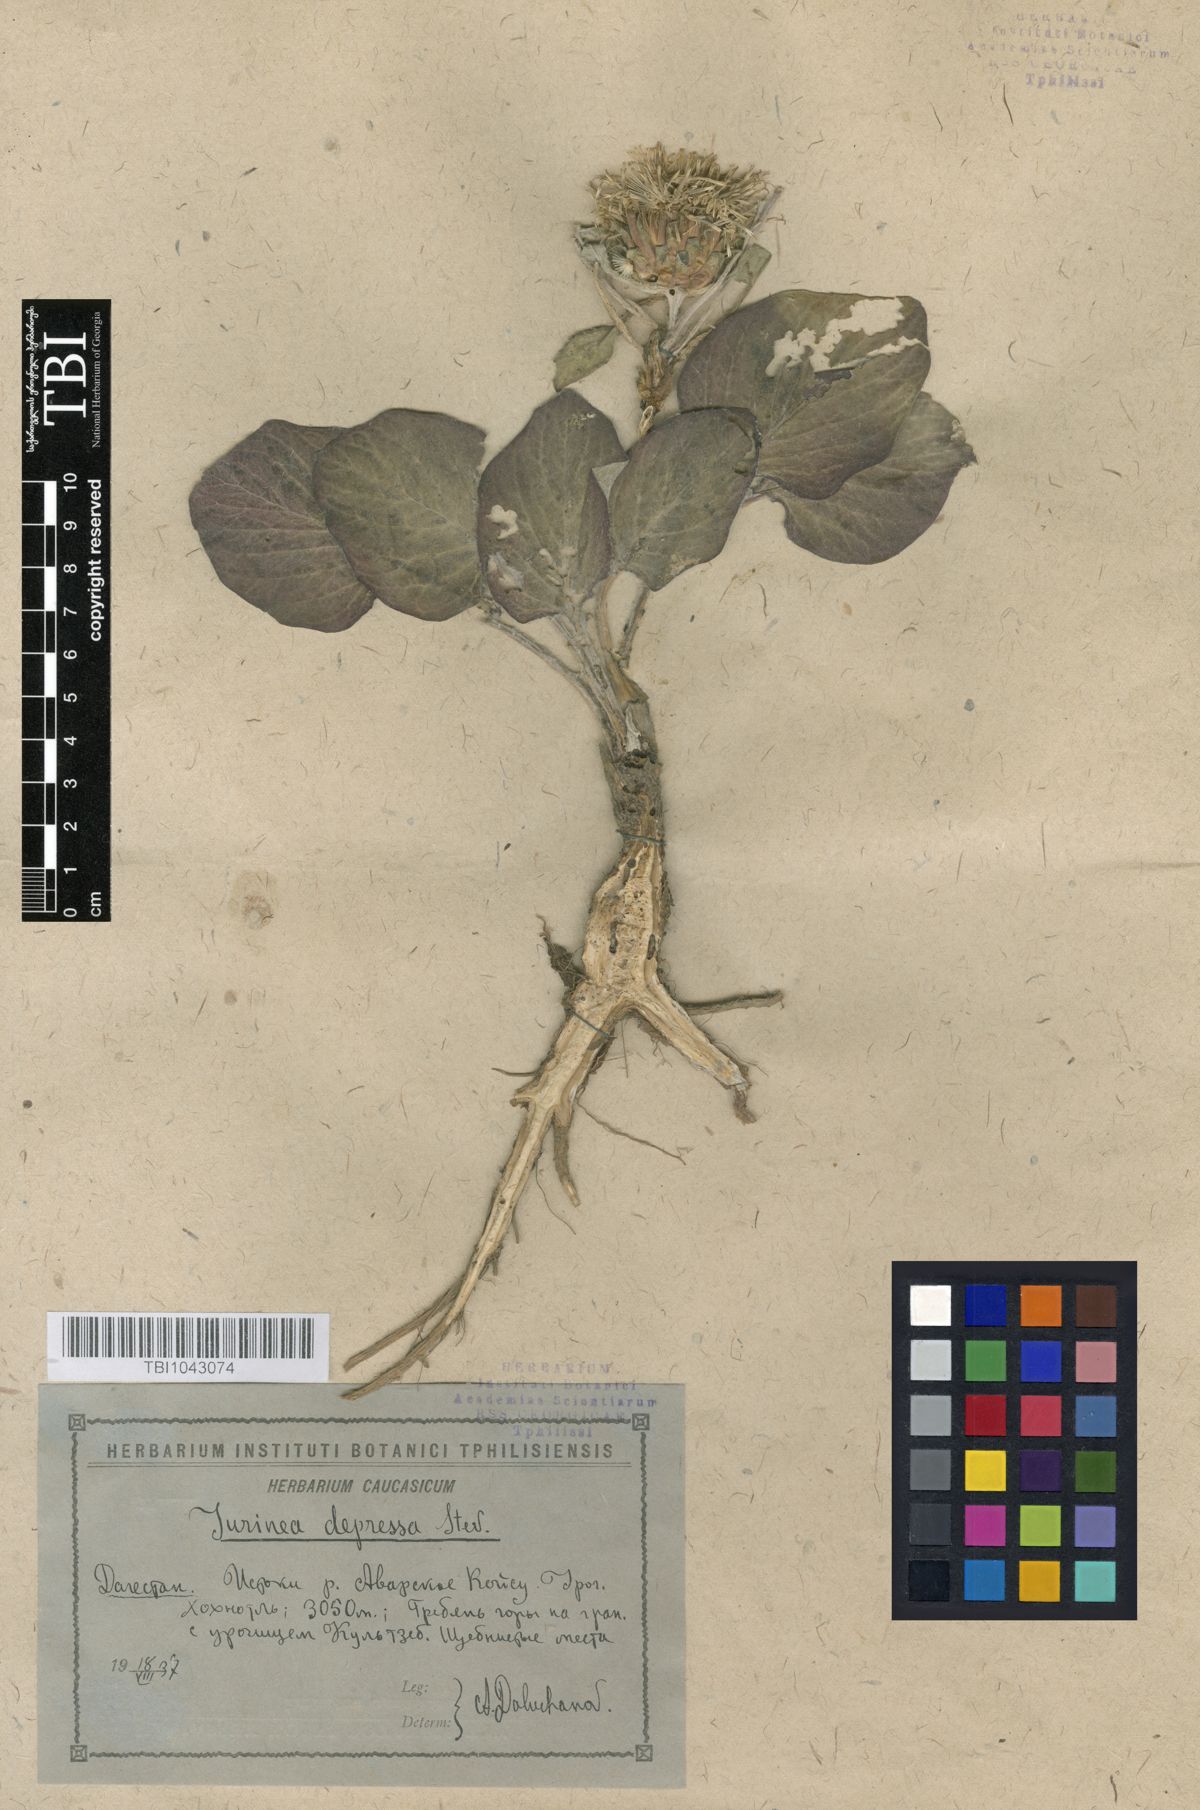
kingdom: Plantae
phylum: Tracheophyta
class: Magnoliopsida
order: Asterales
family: Asteraceae
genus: Jurinea
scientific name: Jurinea moschus
